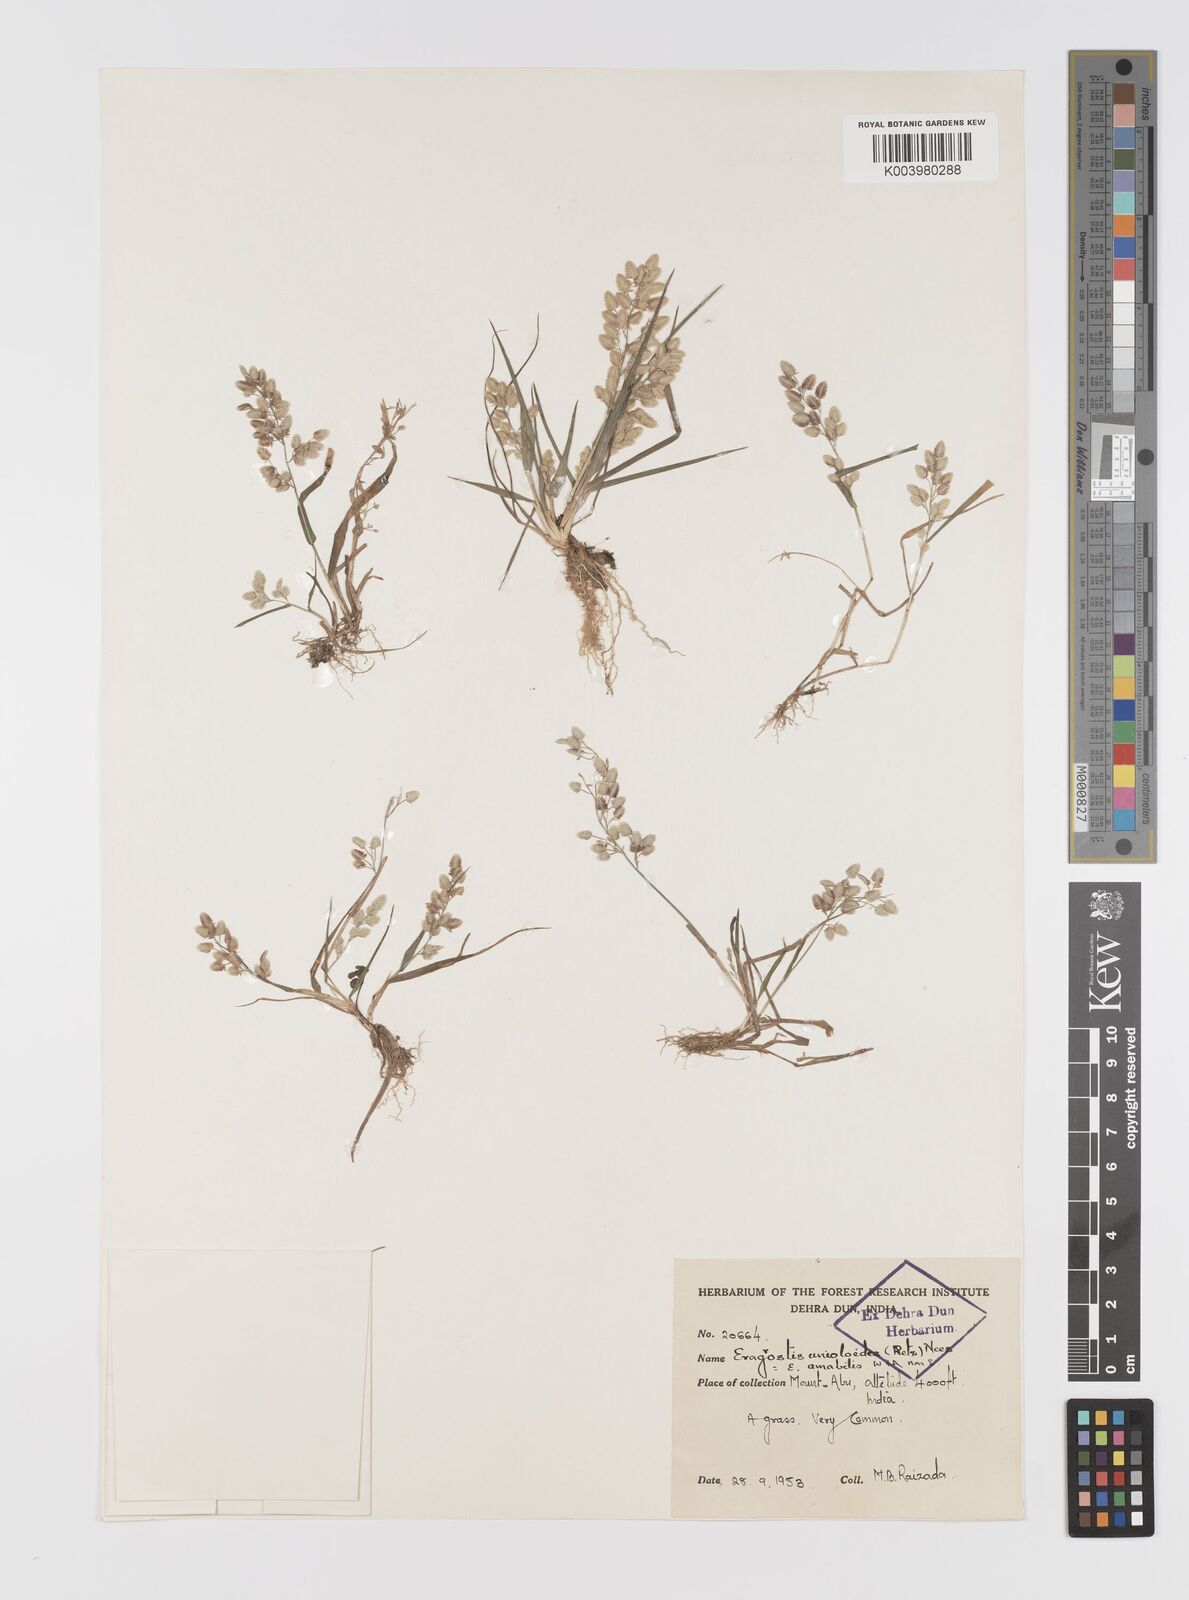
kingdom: Plantae
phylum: Tracheophyta
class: Liliopsida
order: Poales
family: Poaceae
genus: Eragrostis
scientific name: Eragrostis unioloides
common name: Chinese lovegrass
